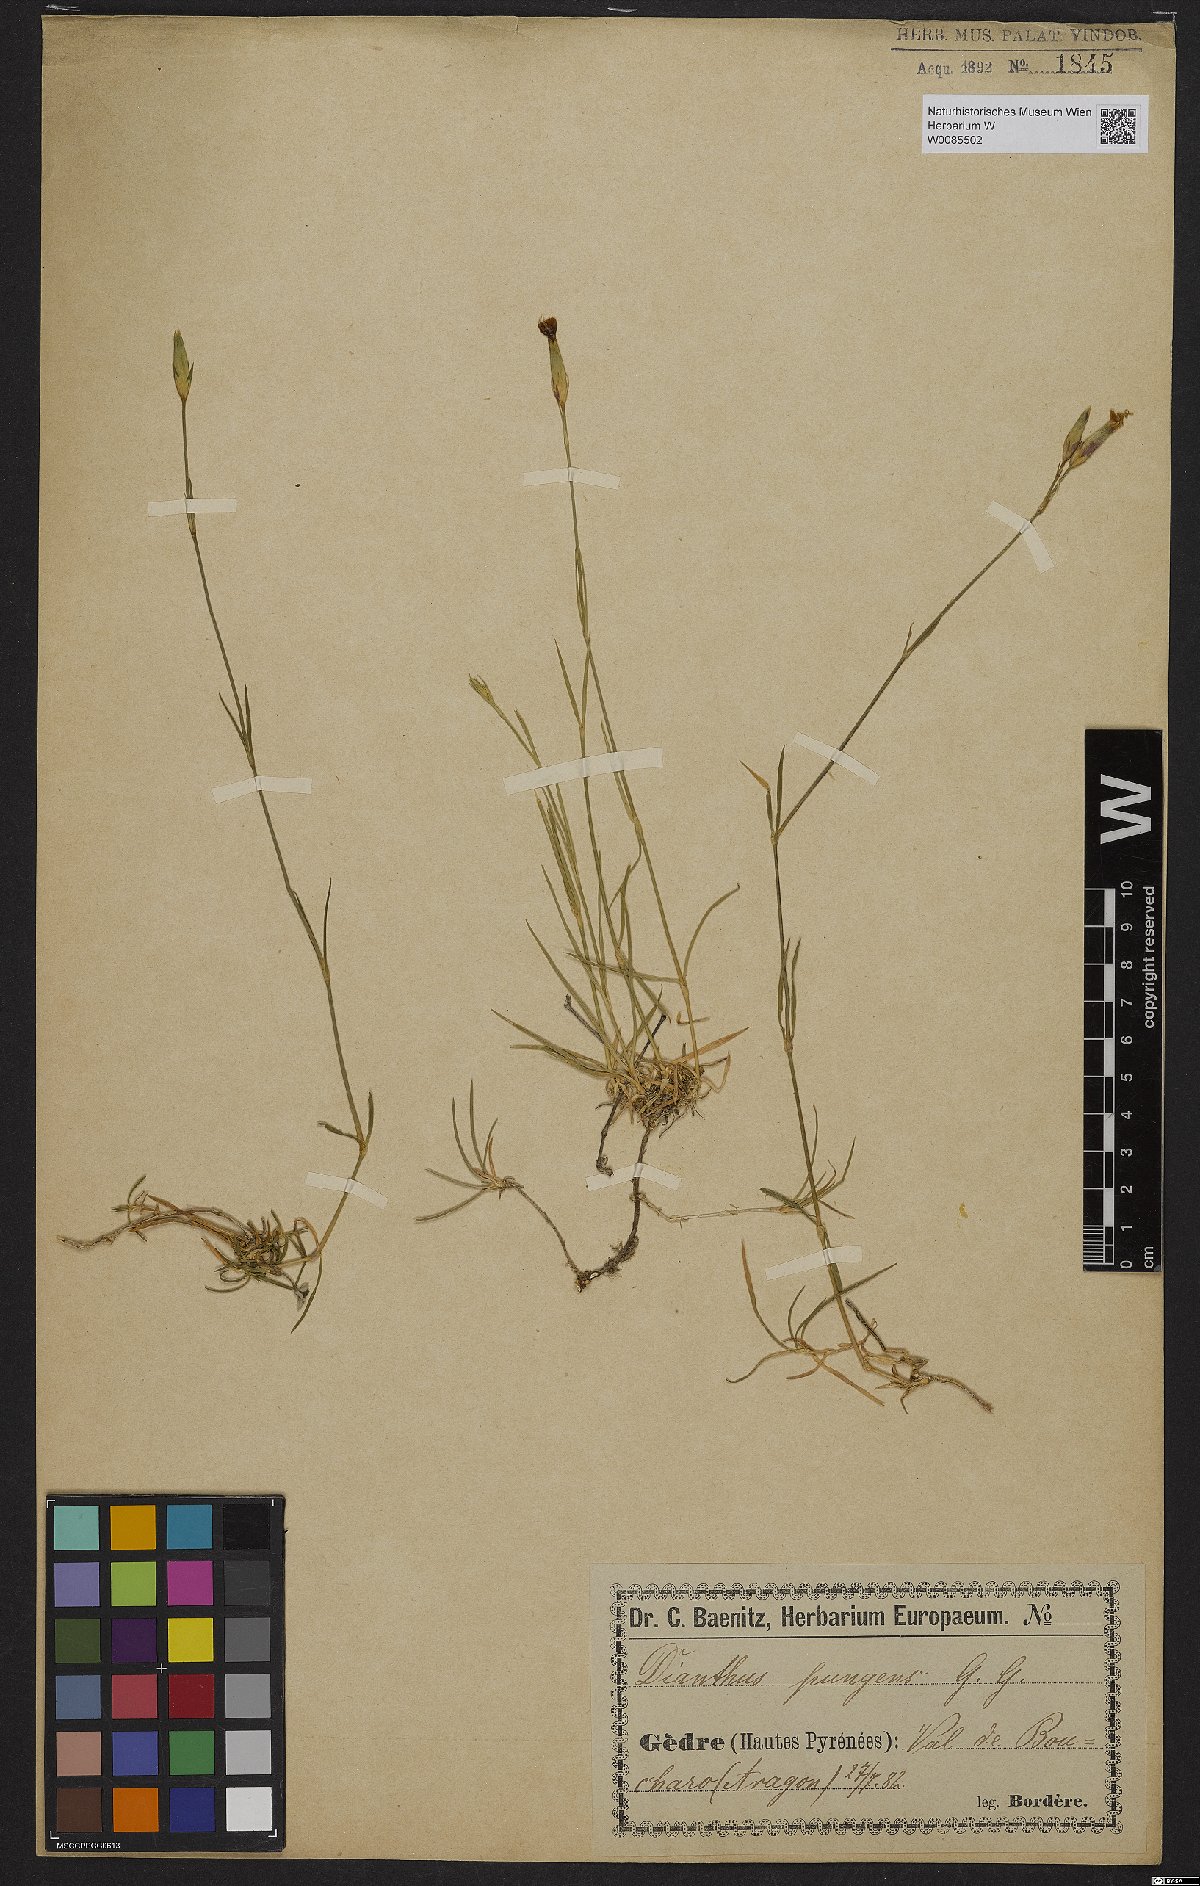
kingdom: Plantae
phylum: Tracheophyta
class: Magnoliopsida
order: Caryophyllales
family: Caryophyllaceae
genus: Dianthus
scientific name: Dianthus pungens
